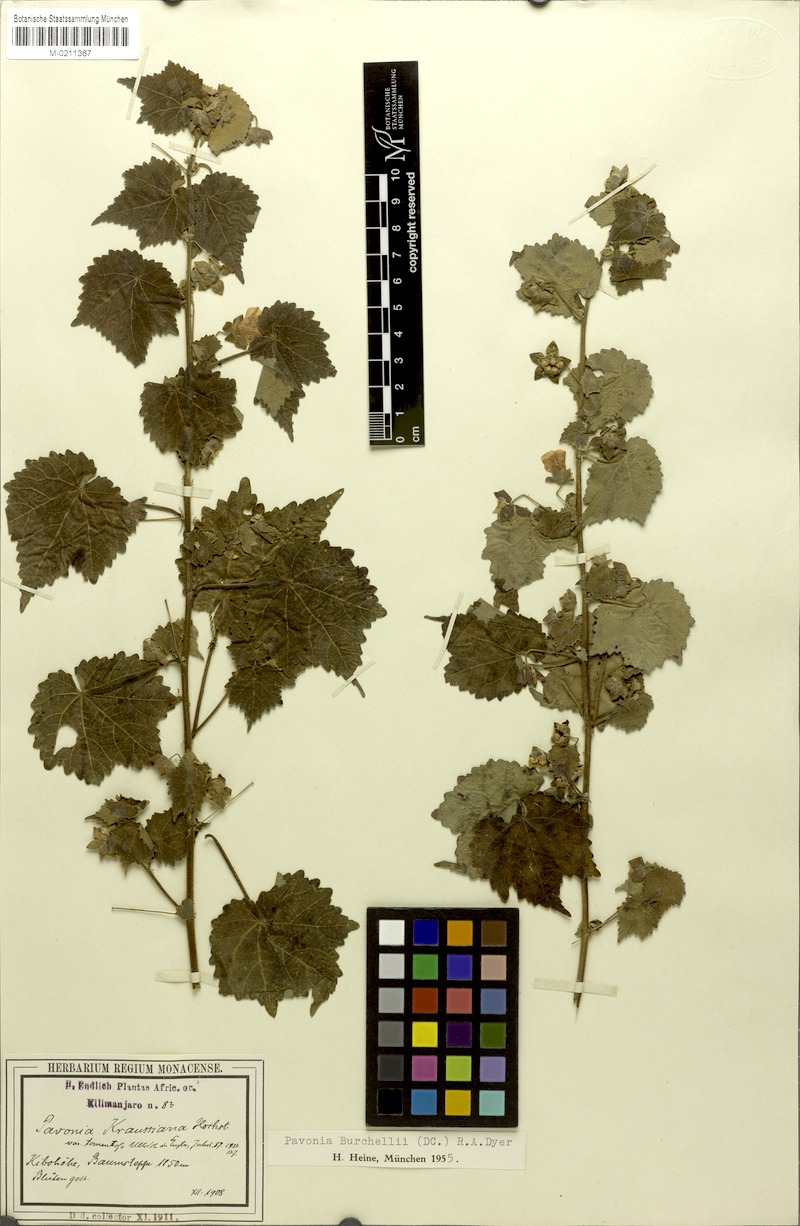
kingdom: Plantae
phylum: Tracheophyta
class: Magnoliopsida
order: Malvales
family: Malvaceae
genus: Pavonia
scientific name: Pavonia burchellii
